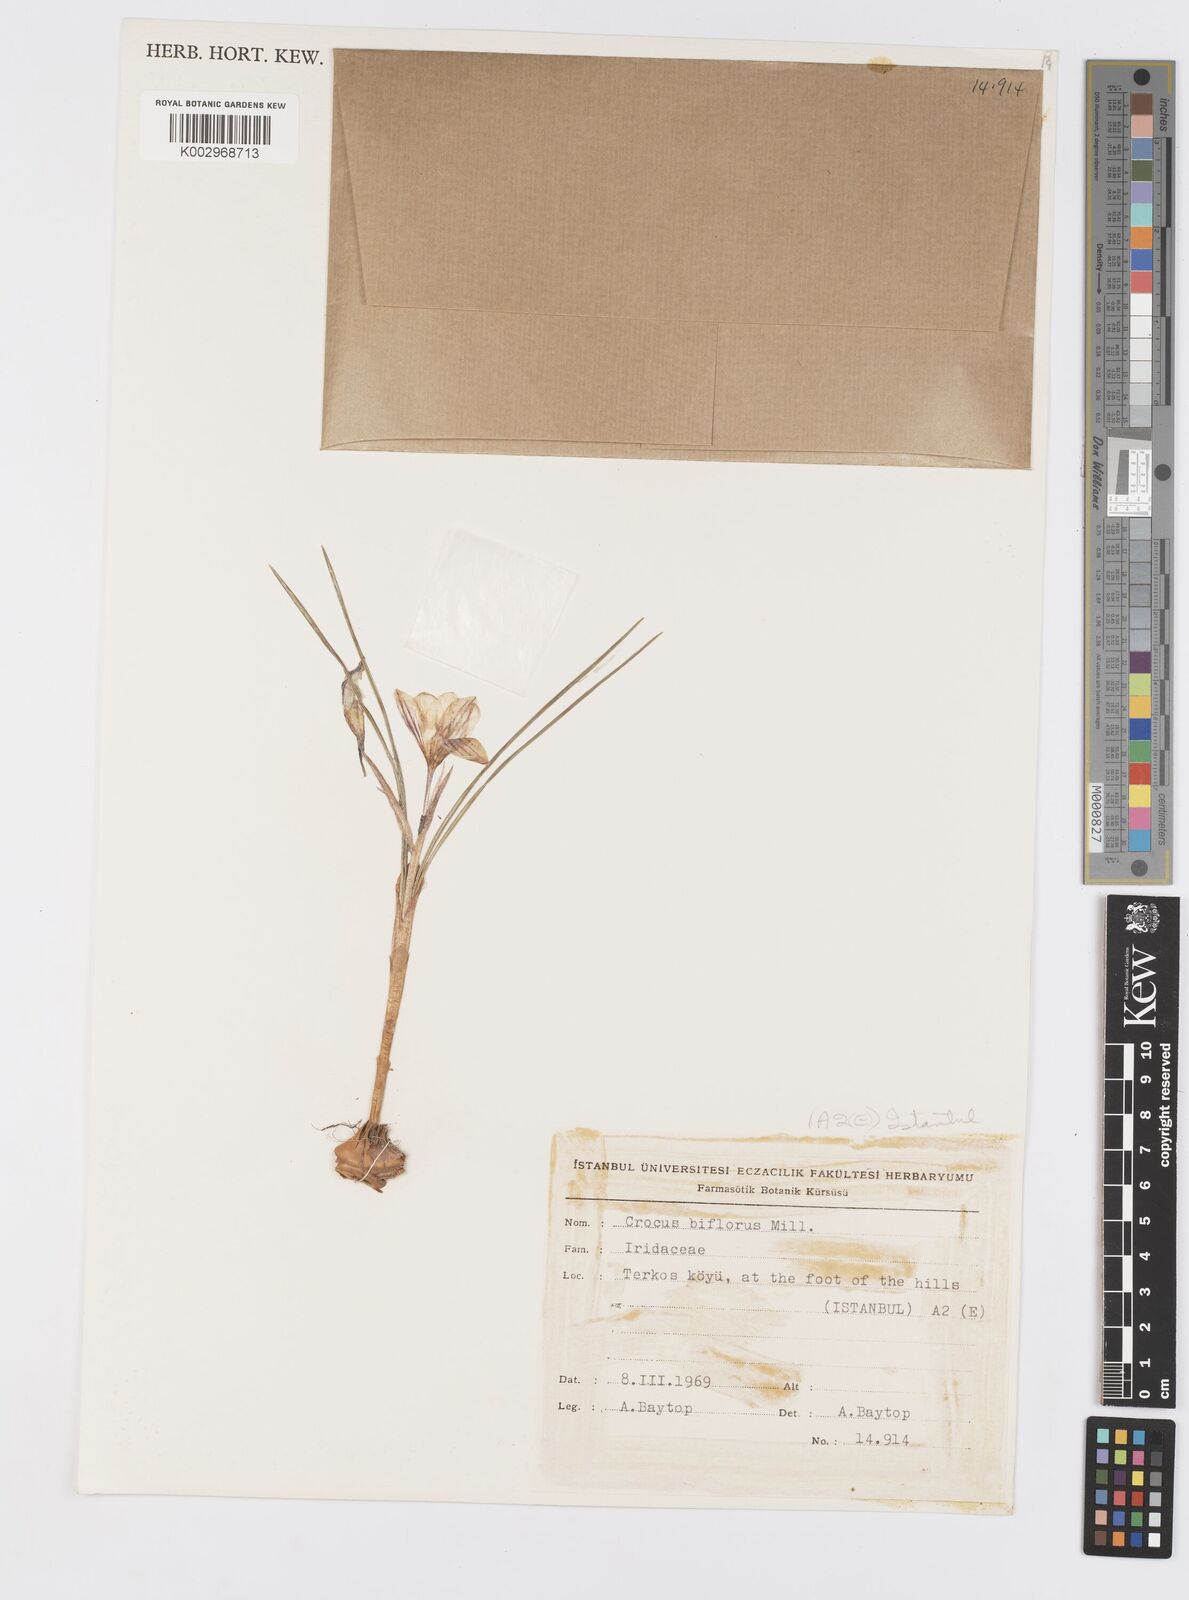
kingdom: Plantae
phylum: Tracheophyta
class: Liliopsida
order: Asparagales
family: Iridaceae
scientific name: Iridaceae
